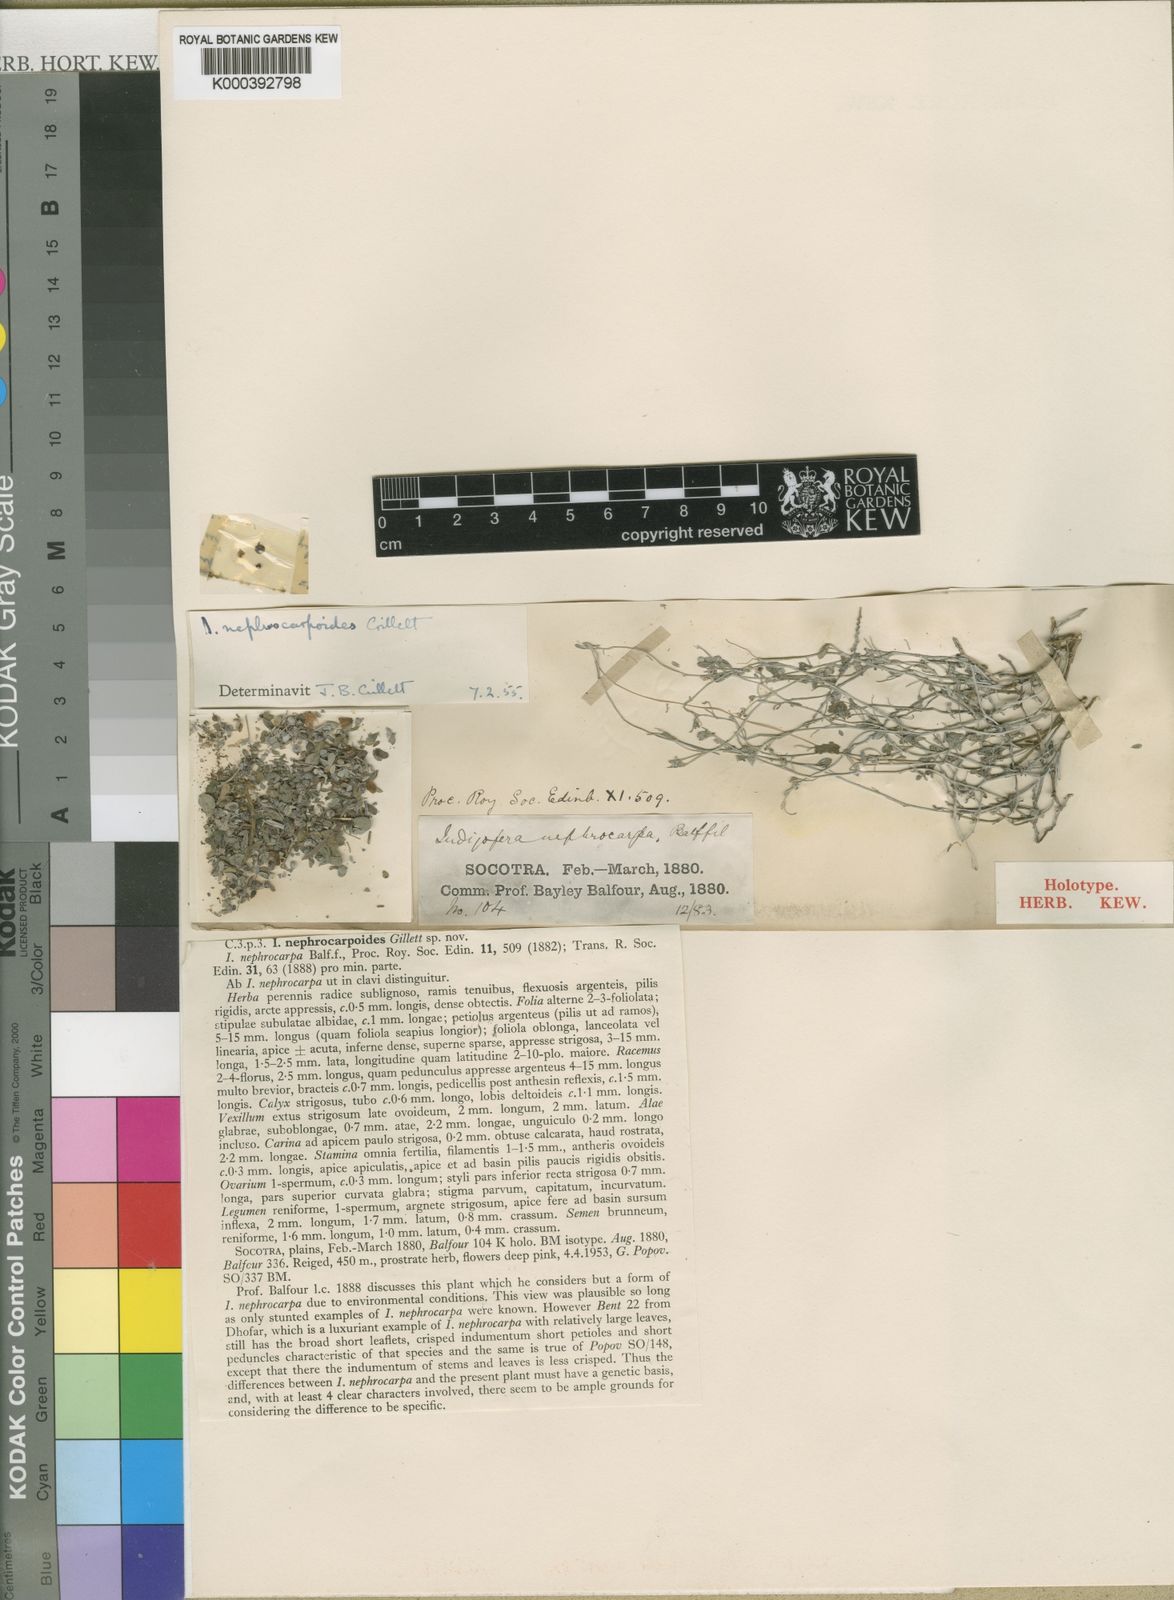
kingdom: Plantae
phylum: Tracheophyta
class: Magnoliopsida
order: Fabales
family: Fabaceae
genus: Indigofera
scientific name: Indigofera nephrocarpoides
